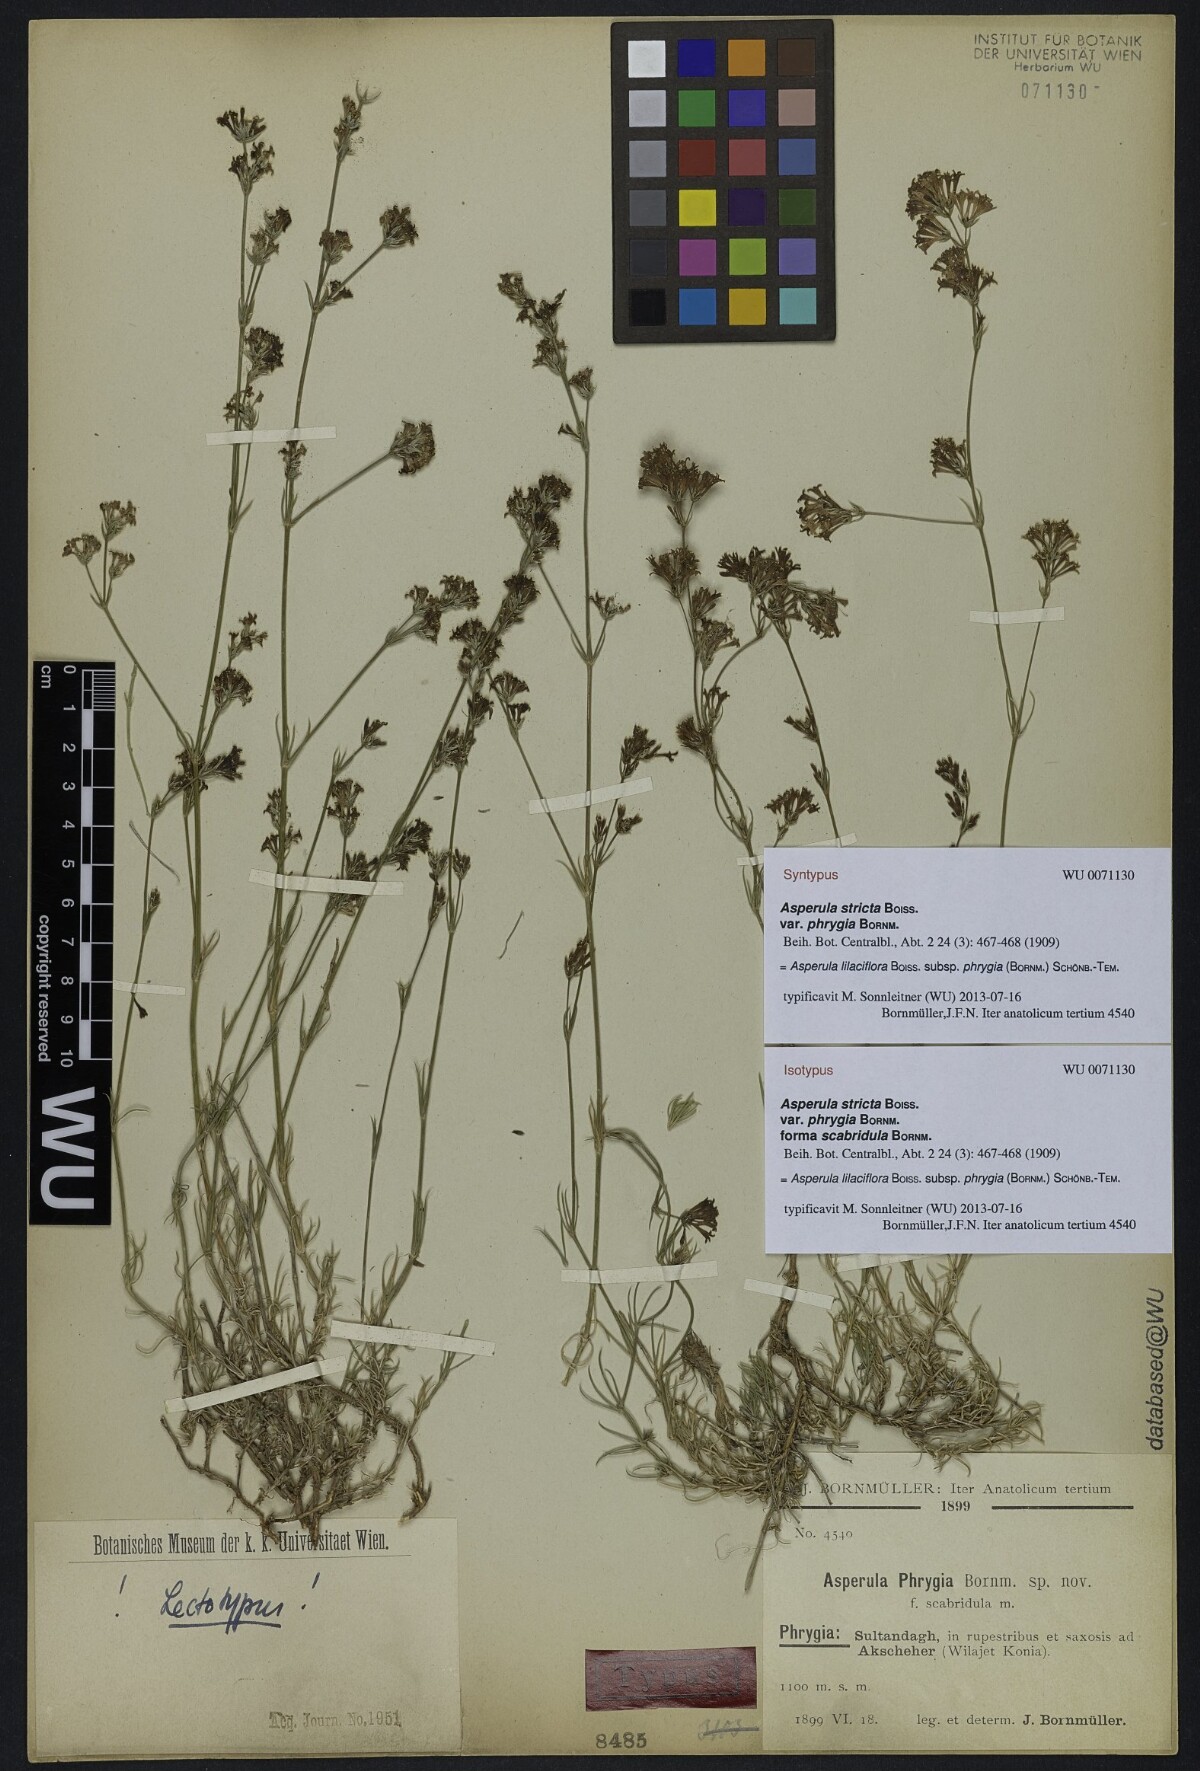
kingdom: Plantae
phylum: Tracheophyta
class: Magnoliopsida
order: Gentianales
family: Rubiaceae
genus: Cynanchica
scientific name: Cynanchica lilaciflora
